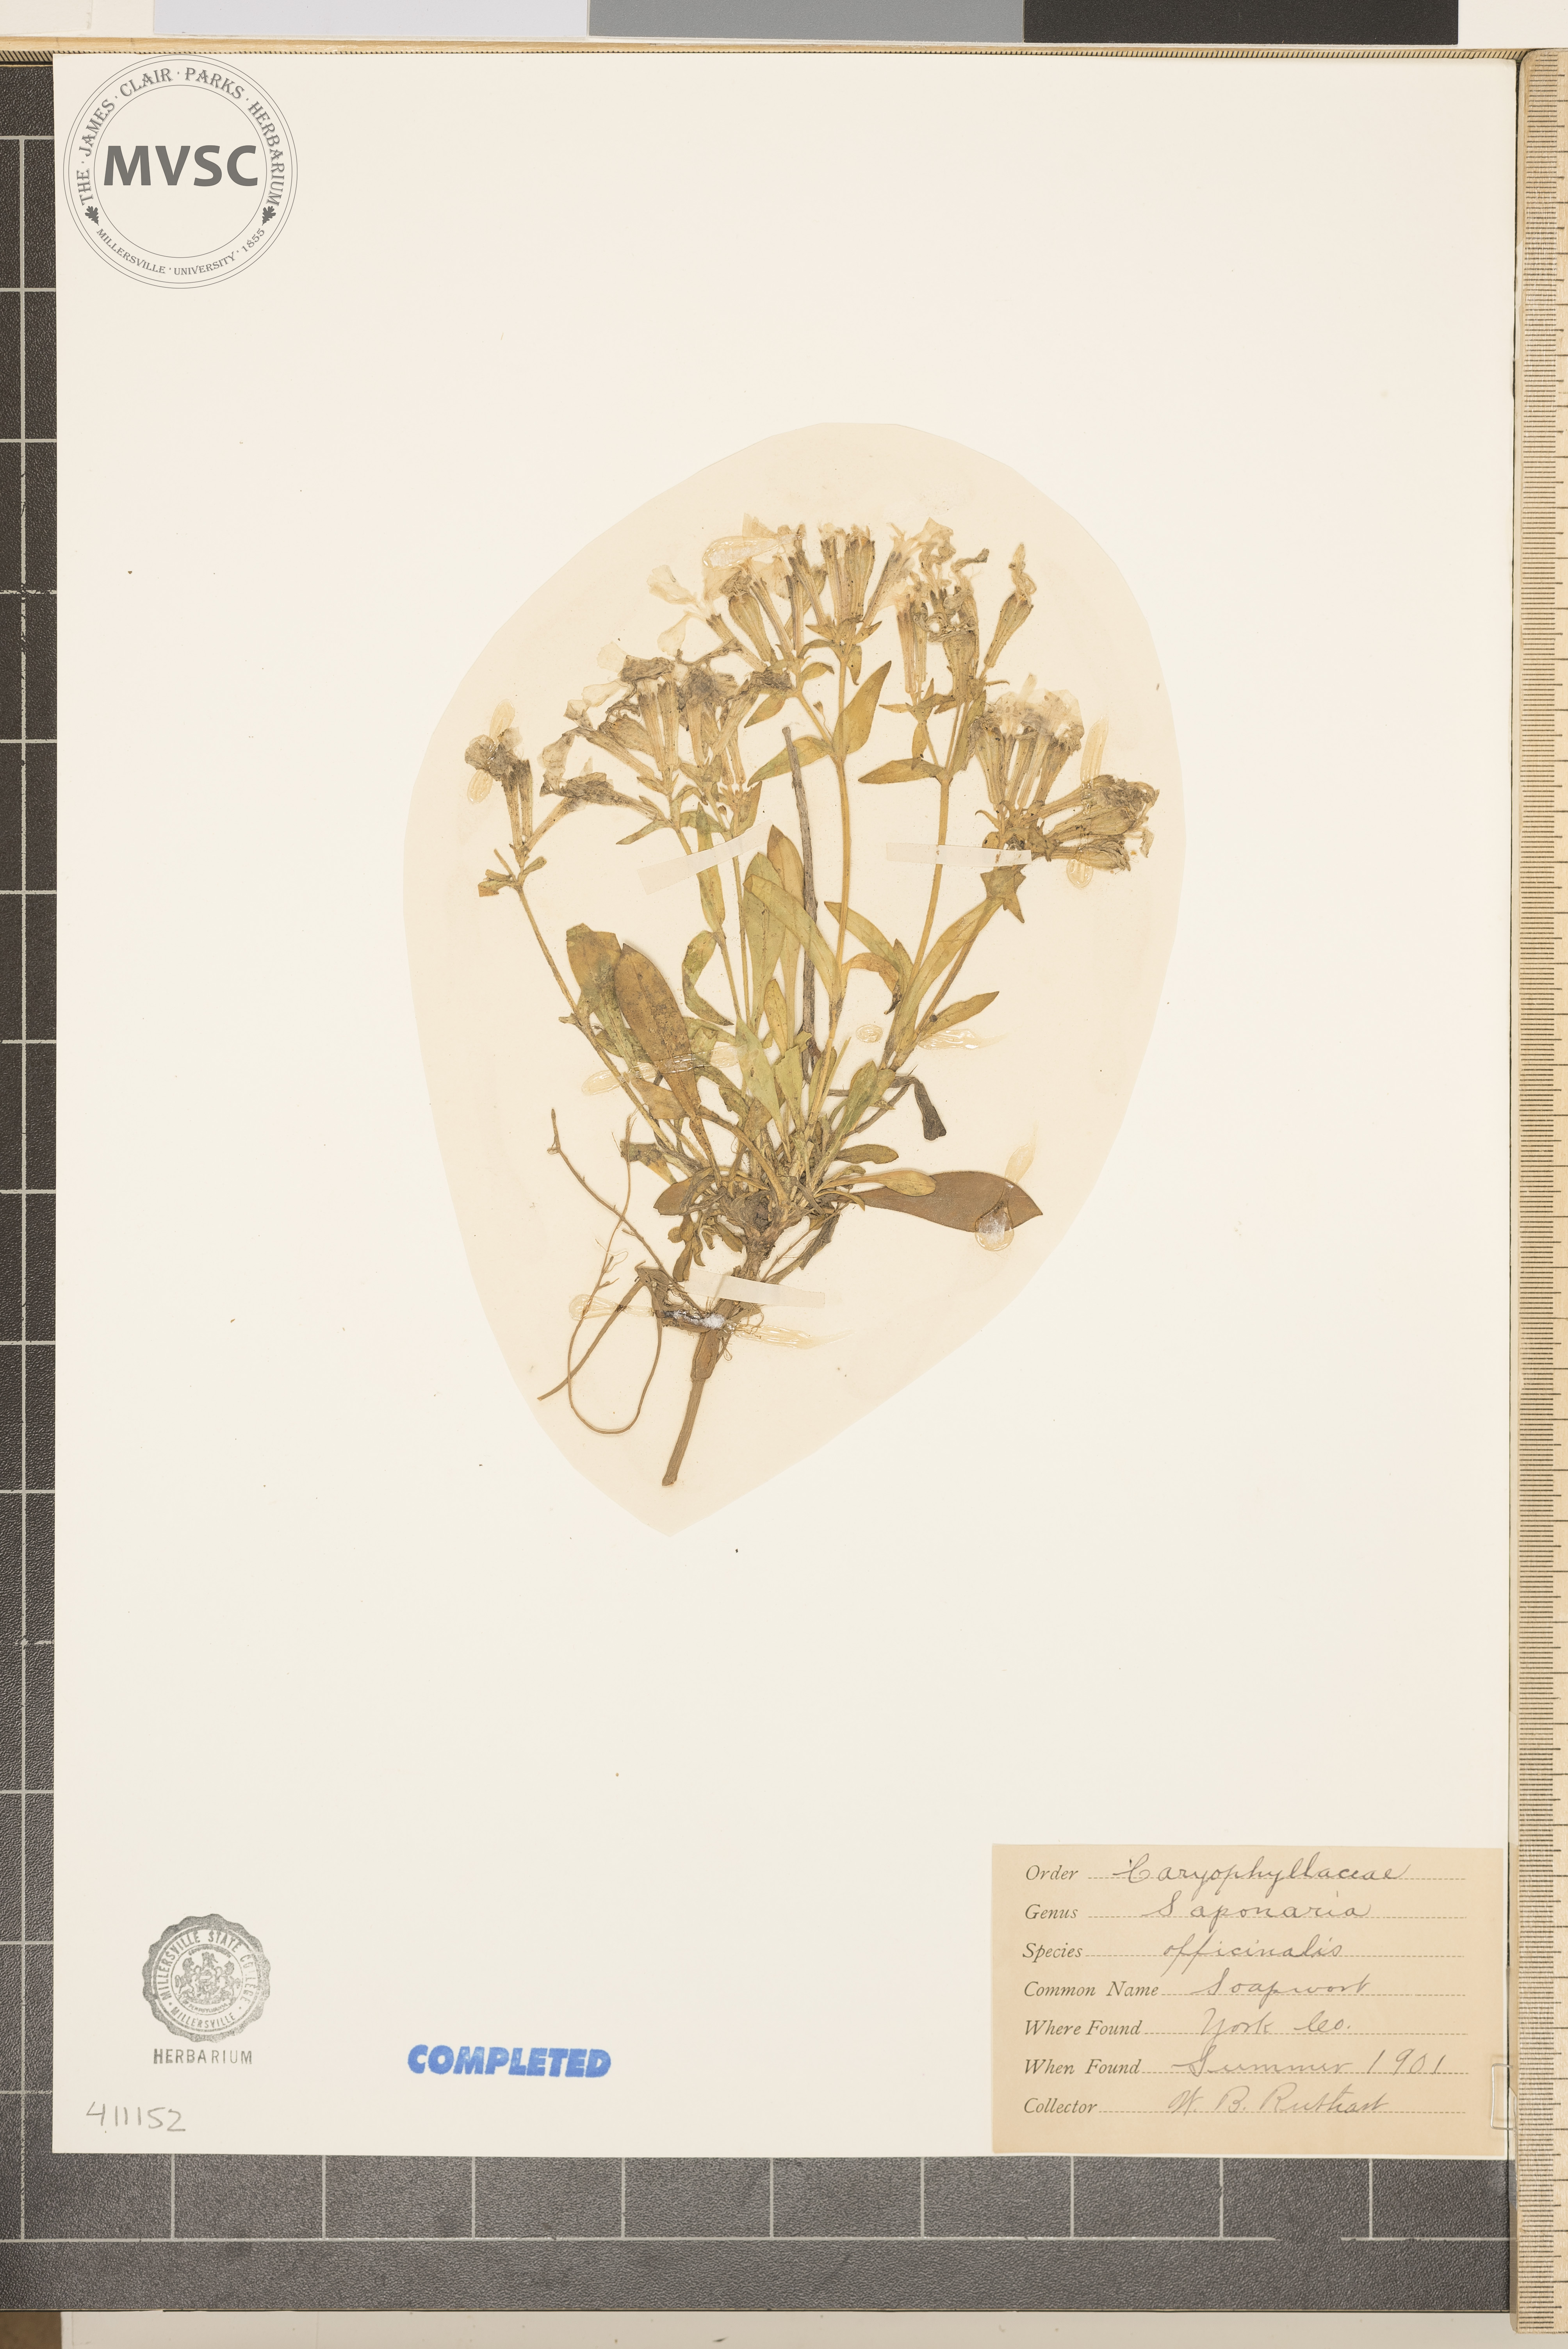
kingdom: Plantae
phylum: Tracheophyta
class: Magnoliopsida
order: Caryophyllales
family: Caryophyllaceae
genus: Saponaria
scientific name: Saponaria officinalis
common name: Soapwort
